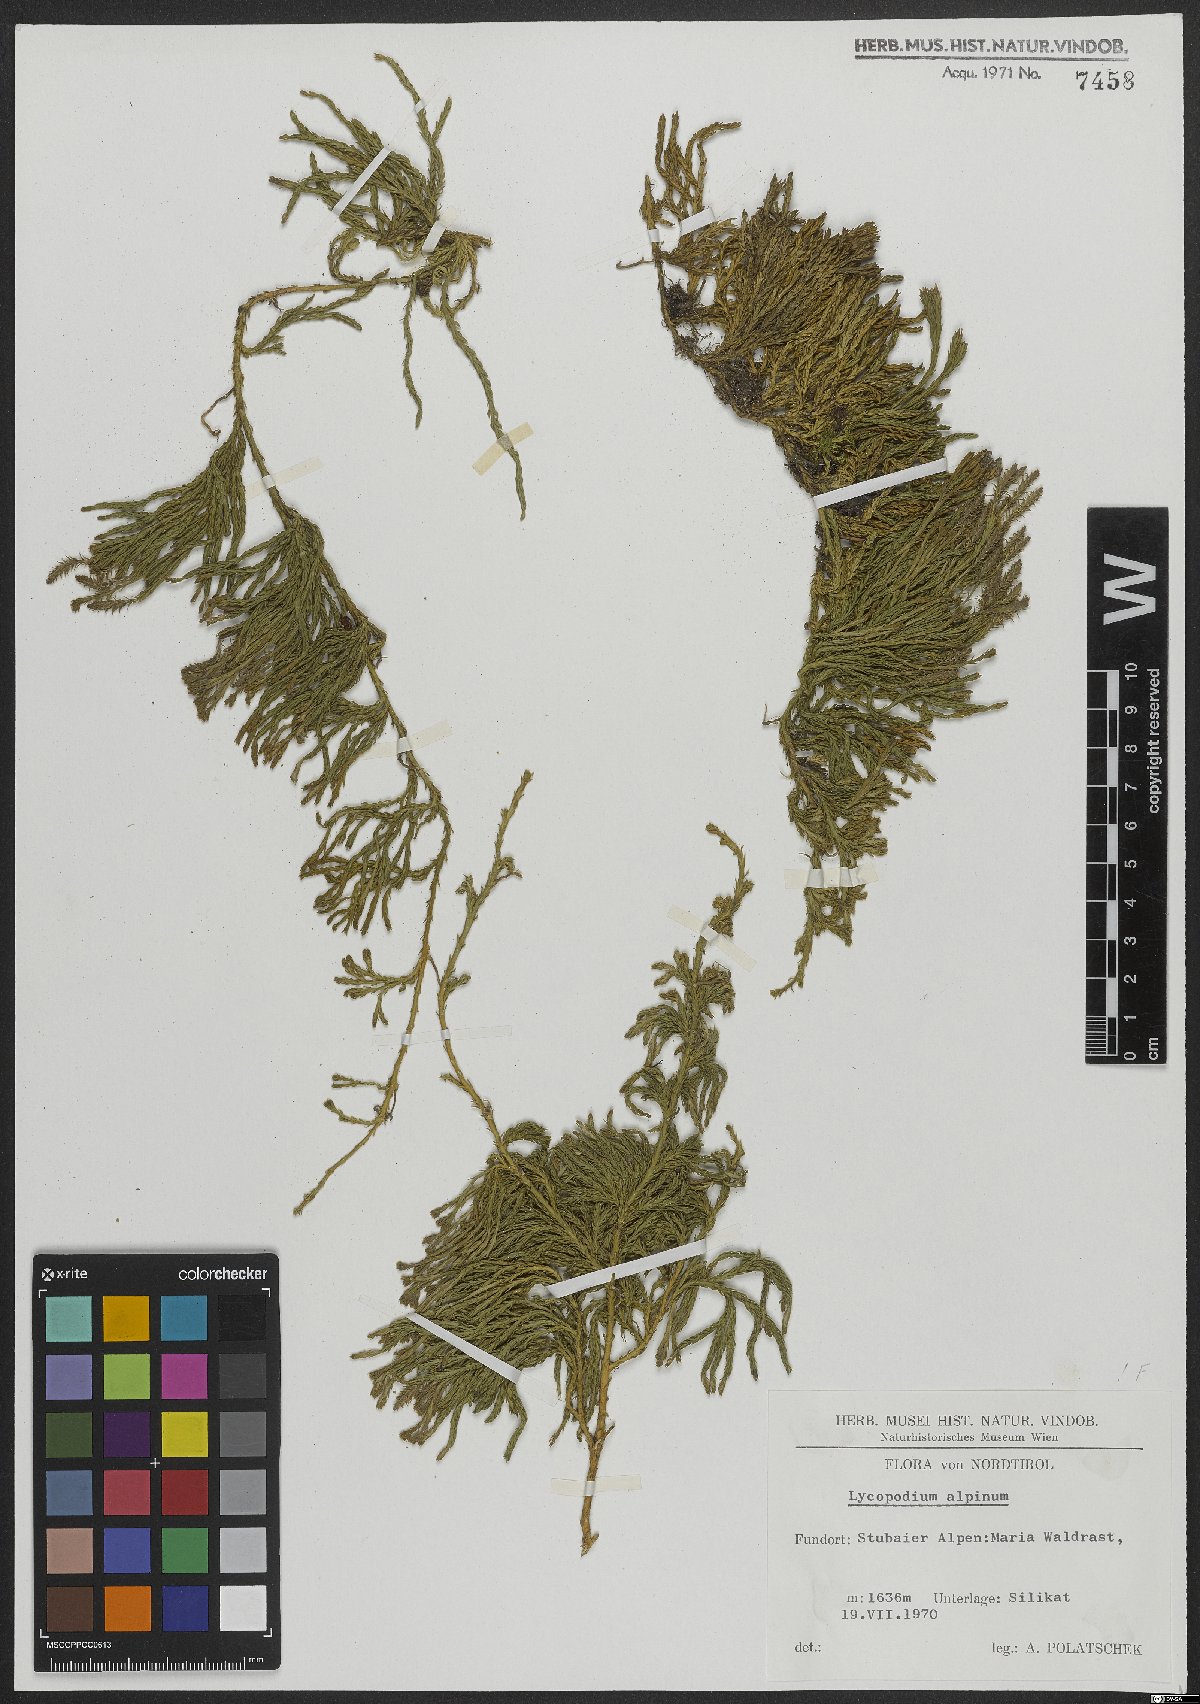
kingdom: Plantae
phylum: Tracheophyta
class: Lycopodiopsida
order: Lycopodiales
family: Lycopodiaceae
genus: Diphasiastrum
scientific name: Diphasiastrum alpinum
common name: Alpine clubmoss
